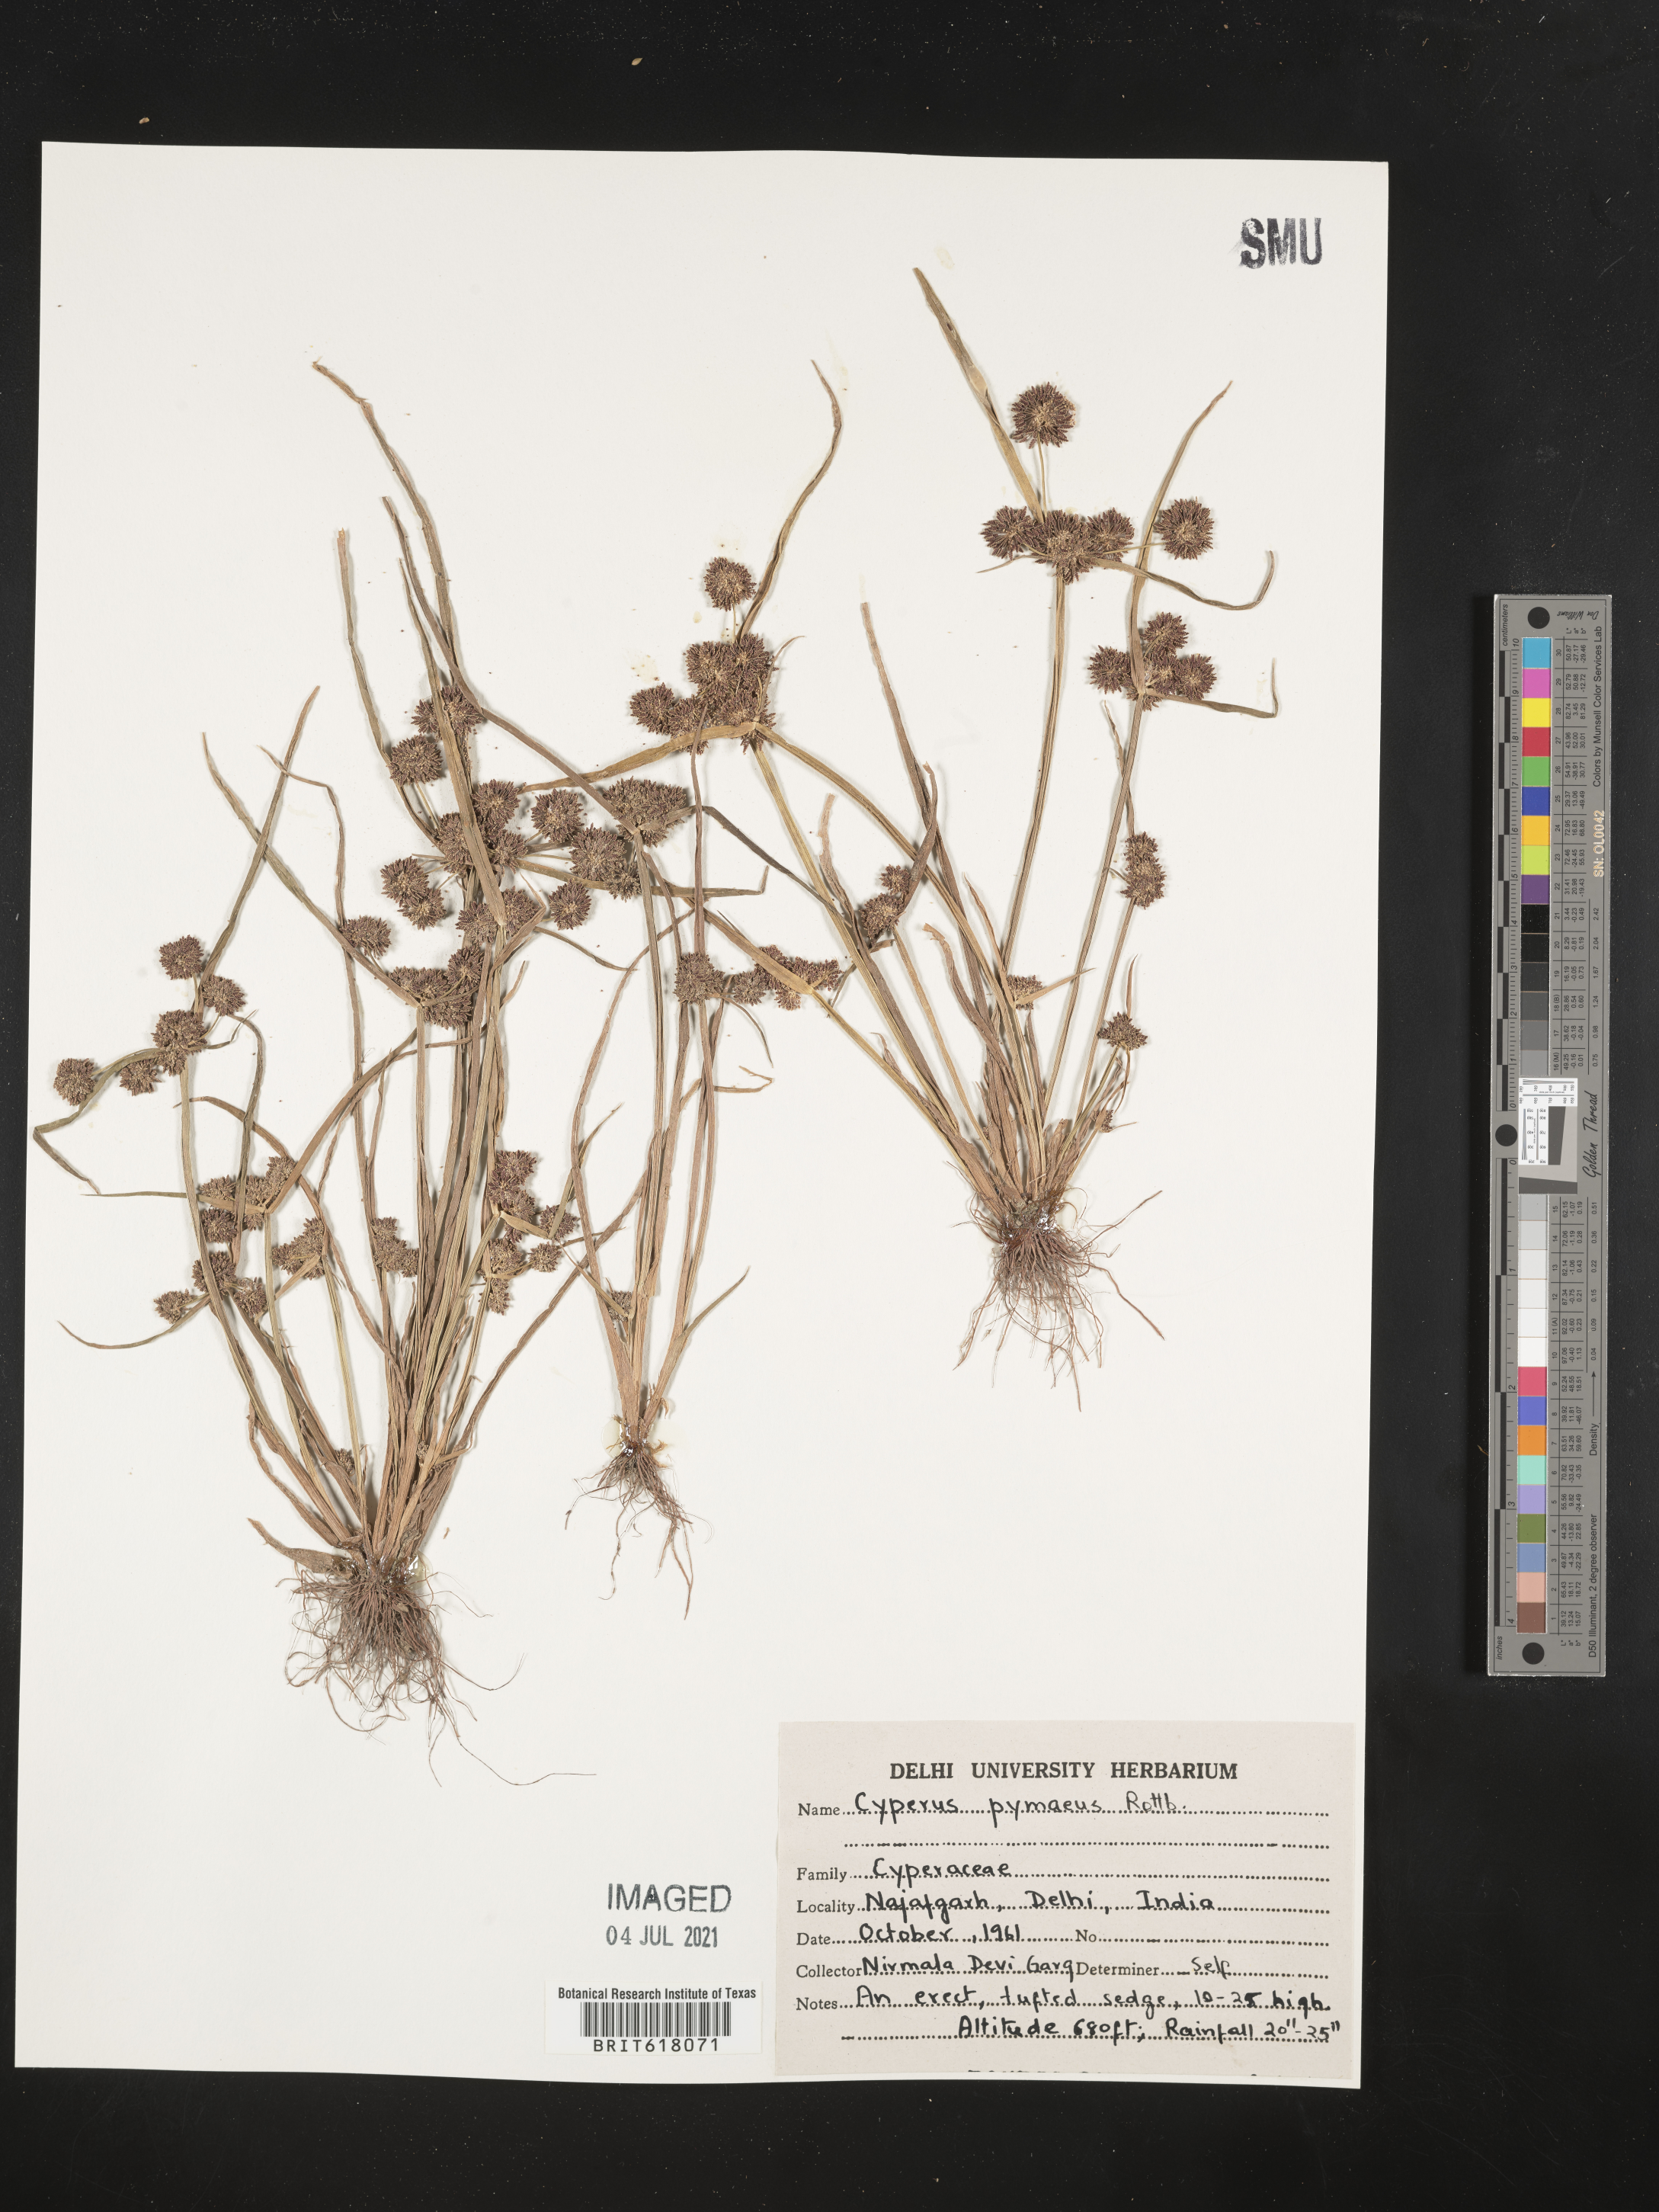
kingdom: Plantae
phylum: Tracheophyta
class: Liliopsida
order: Poales
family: Cyperaceae
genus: Cyperus
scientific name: Cyperus michelianus
